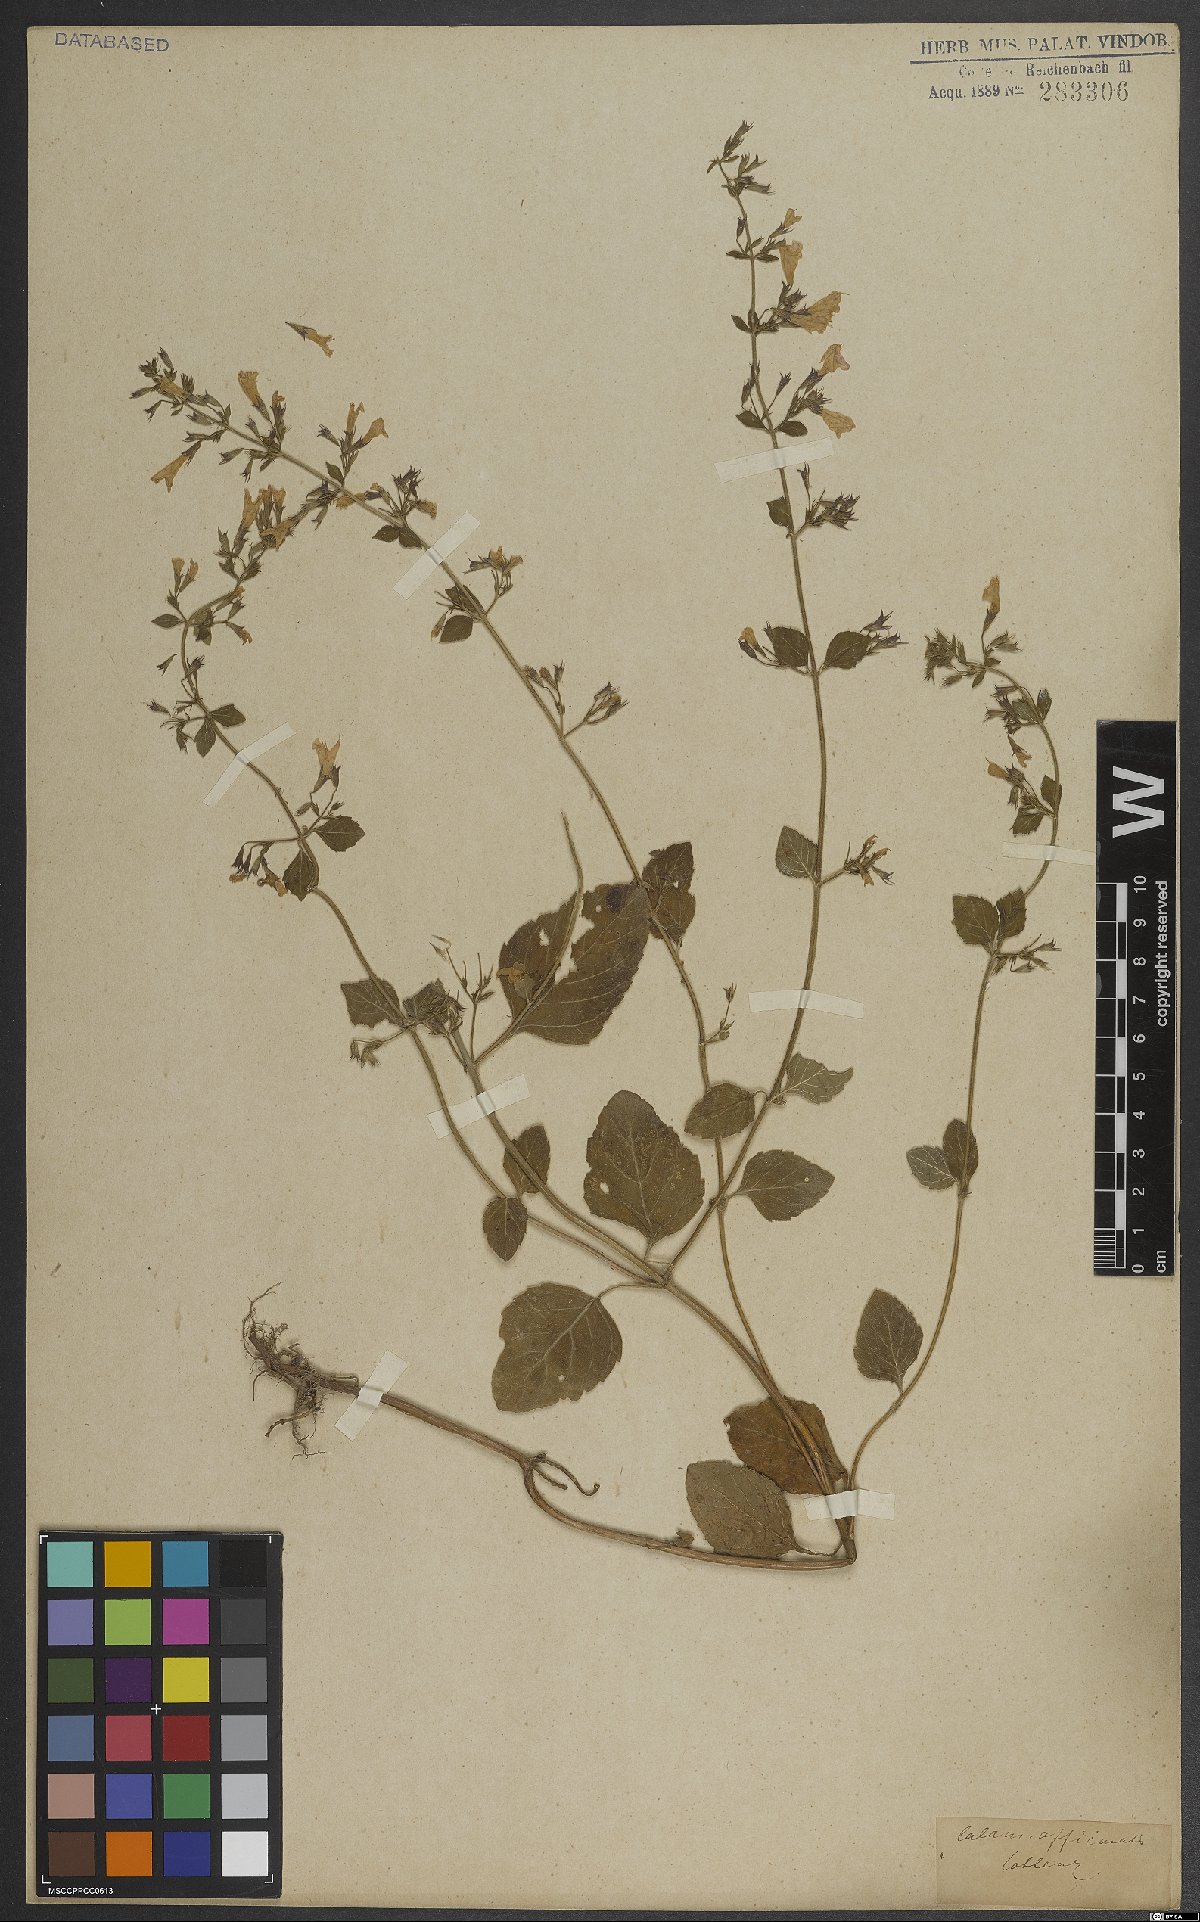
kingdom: Plantae
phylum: Tracheophyta
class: Magnoliopsida
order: Lamiales
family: Lamiaceae
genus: Clinopodium
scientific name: Clinopodium nepeta
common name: Lesser calamint
